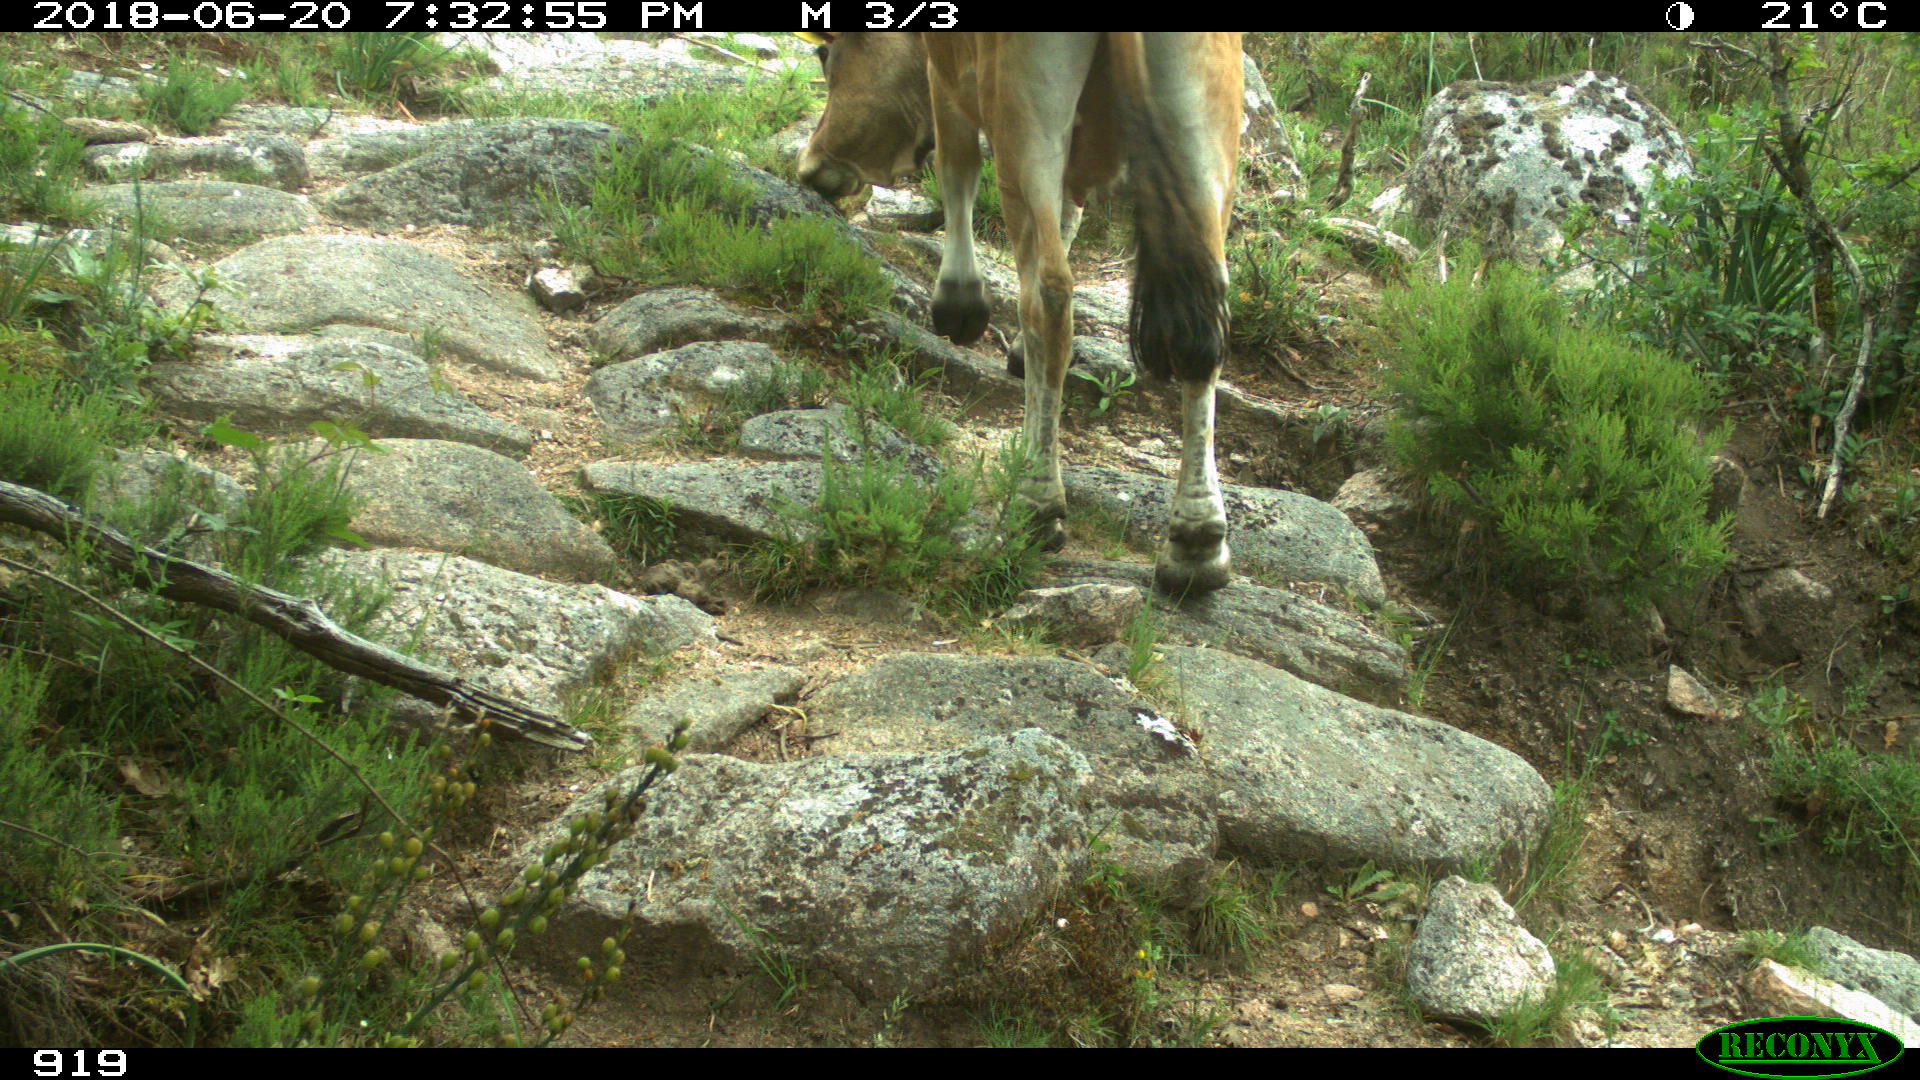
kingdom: Animalia
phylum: Chordata
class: Mammalia
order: Artiodactyla
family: Bovidae
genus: Bos
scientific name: Bos taurus
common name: Domesticated cattle
